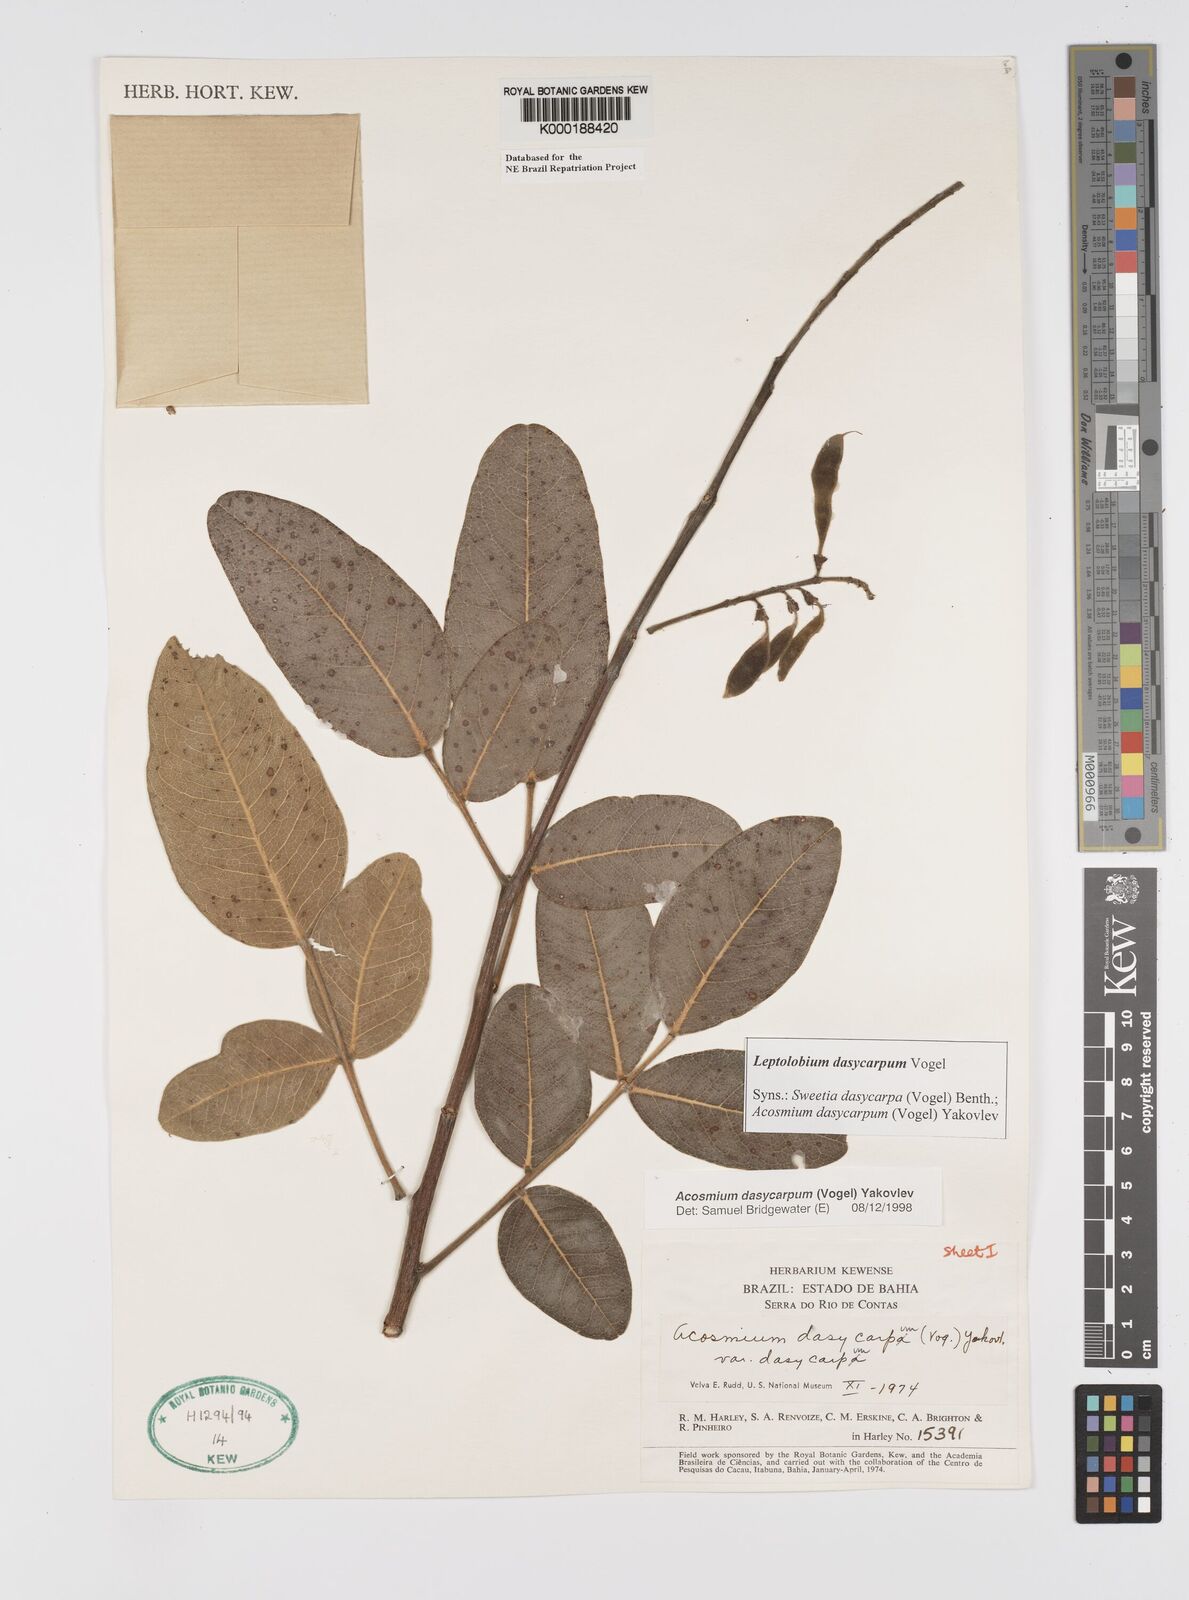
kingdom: Plantae
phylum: Tracheophyta
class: Magnoliopsida
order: Fabales
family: Fabaceae
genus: Leptolobium
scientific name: Leptolobium dasycarpum
